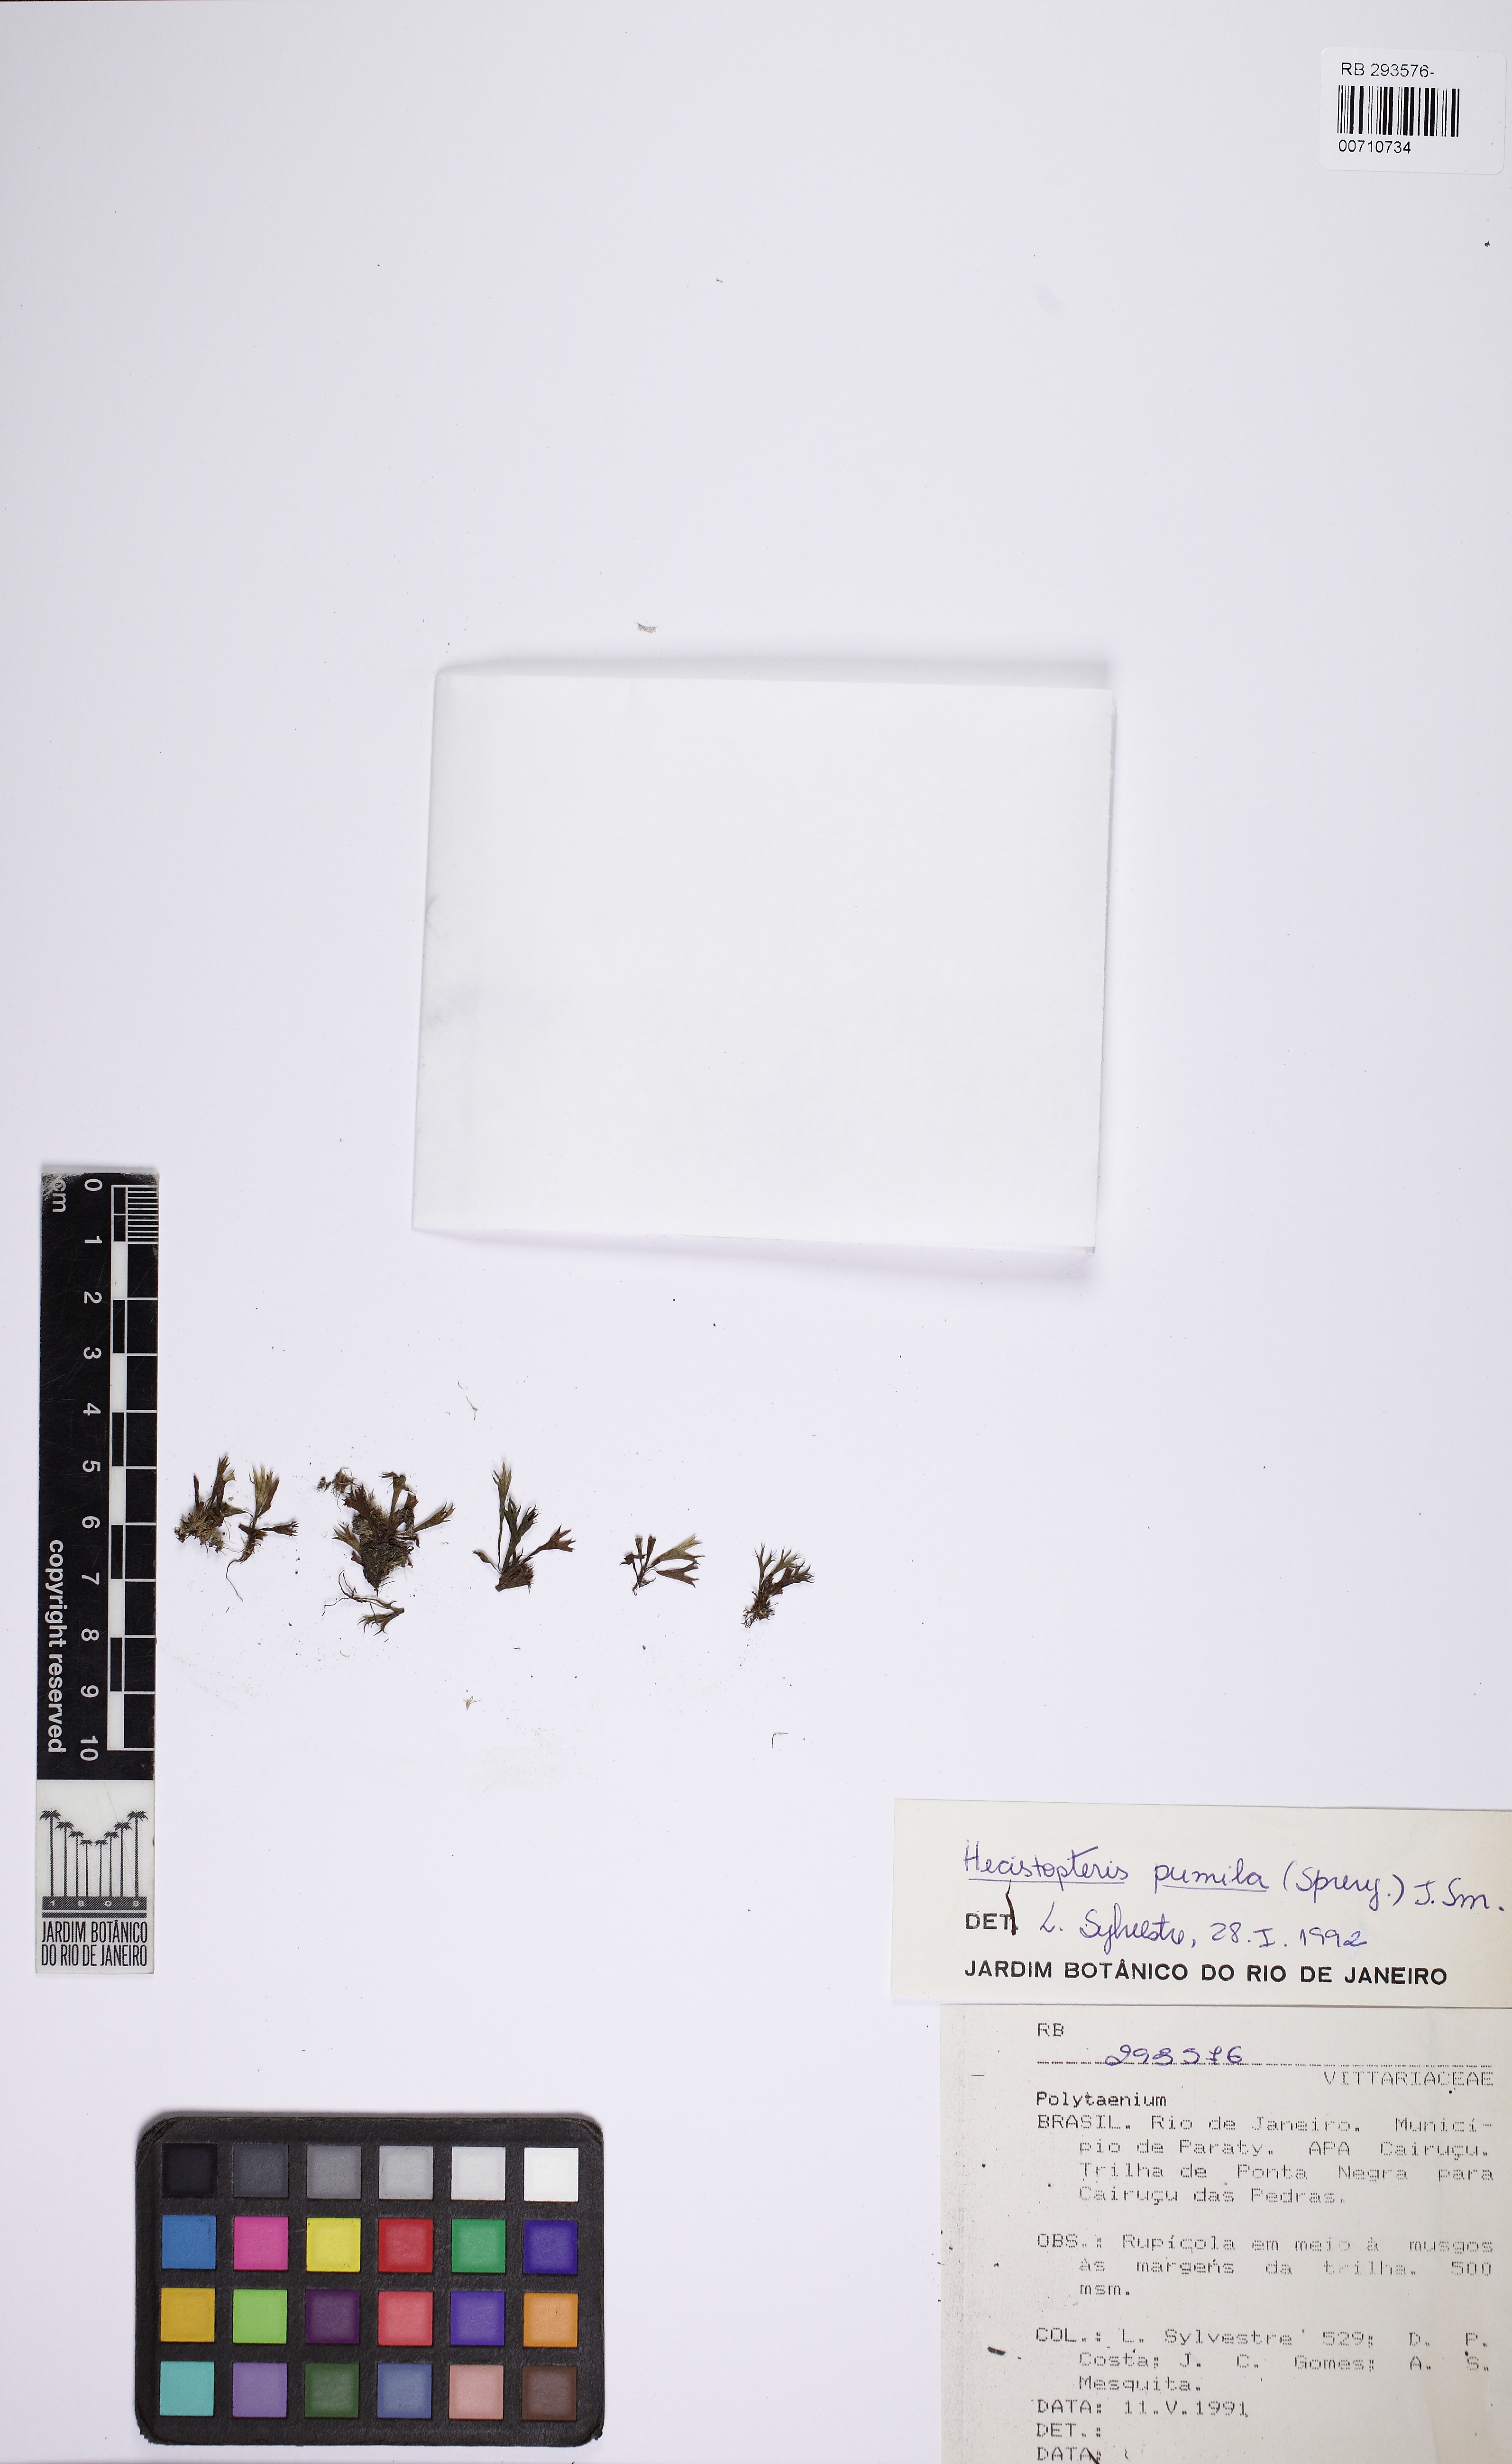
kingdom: Plantae
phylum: Tracheophyta
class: Polypodiopsida
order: Polypodiales
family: Pteridaceae
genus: Hecistopteris
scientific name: Hecistopteris pumila
